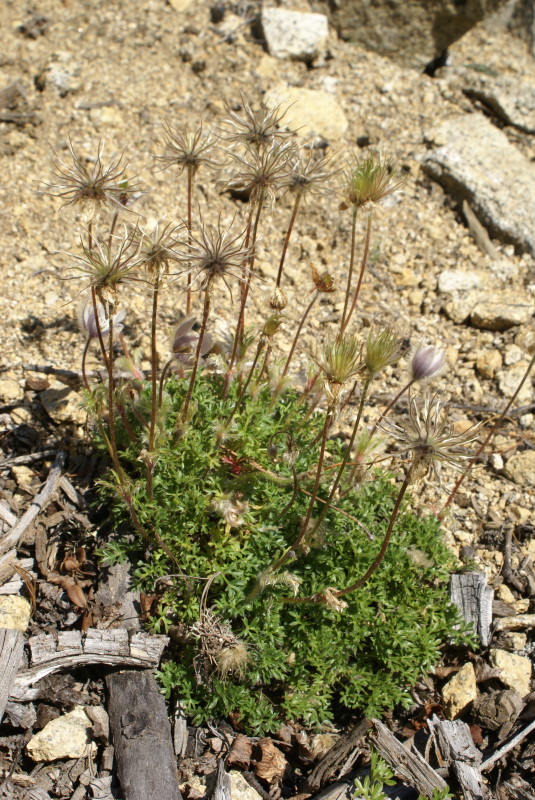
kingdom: Plantae
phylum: Tracheophyta
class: Magnoliopsida
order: Ranunculales
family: Ranunculaceae
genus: Pulsatilla
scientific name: Pulsatilla magadanensis
